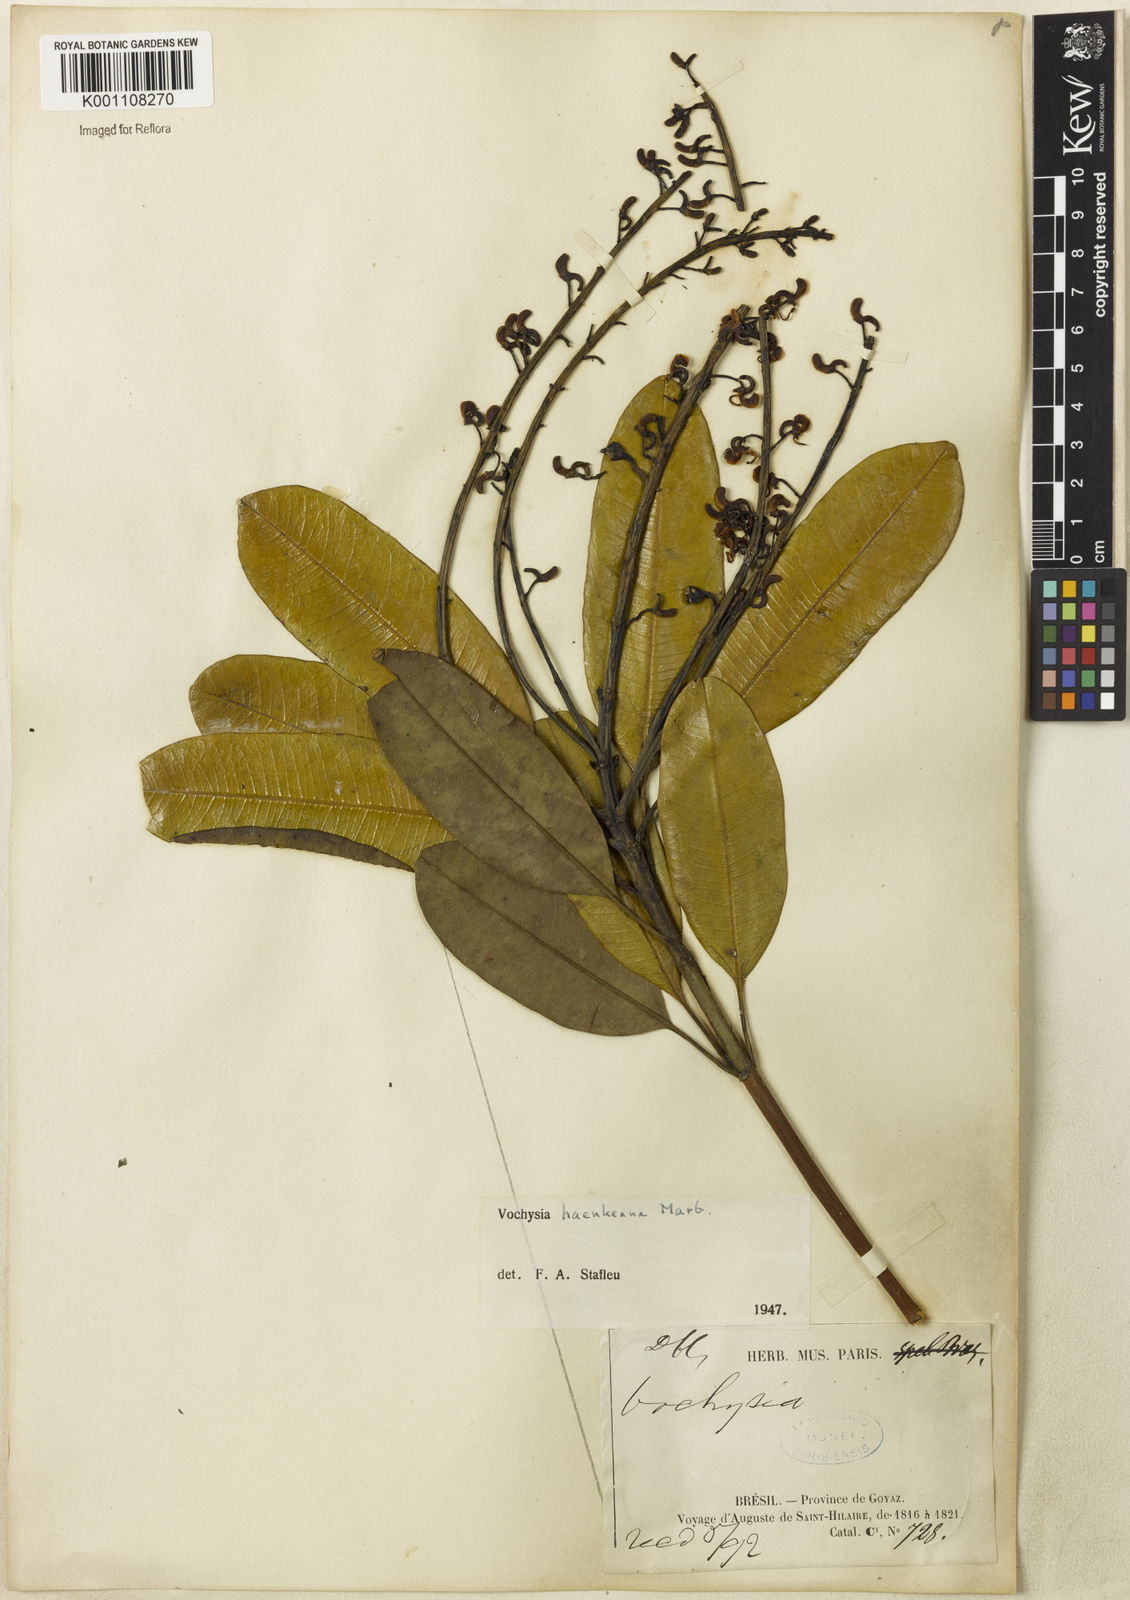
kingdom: Plantae
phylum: Tracheophyta
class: Magnoliopsida
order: Myrtales
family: Vochysiaceae
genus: Vochysia
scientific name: Vochysia haenkeana
